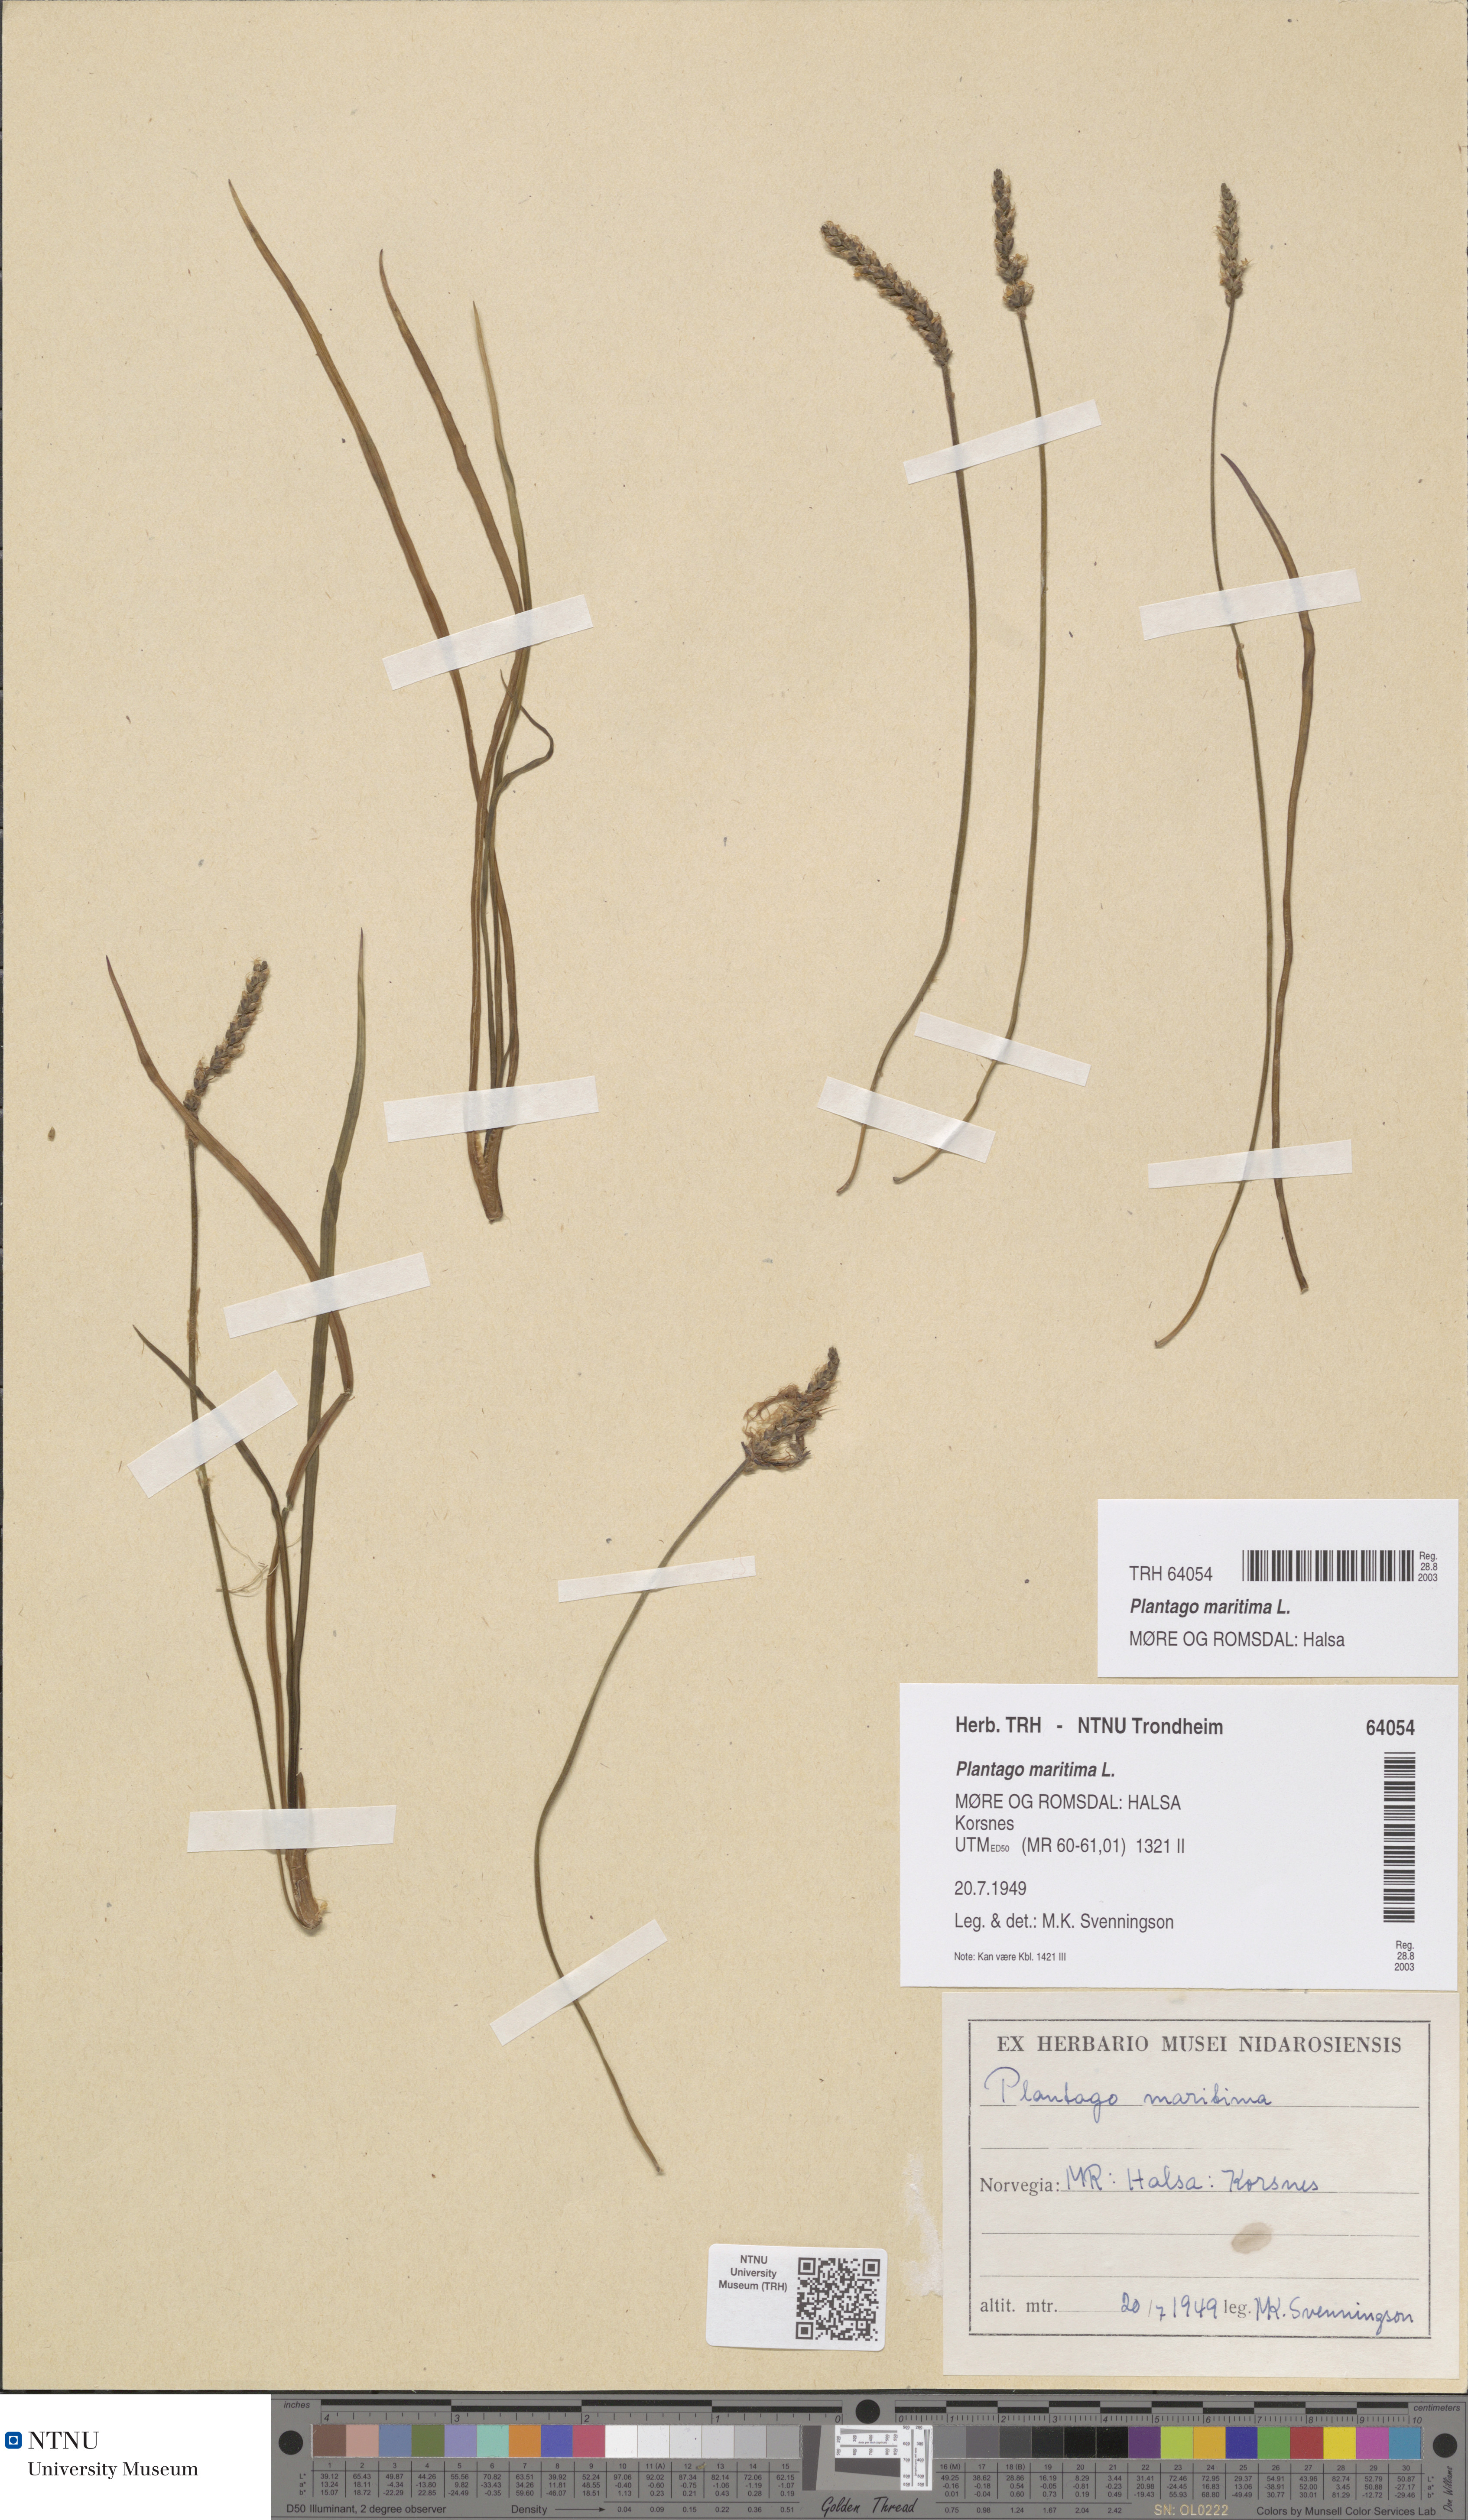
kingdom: Plantae
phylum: Tracheophyta
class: Magnoliopsida
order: Lamiales
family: Plantaginaceae
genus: Plantago
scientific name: Plantago maritima
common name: Sea plantain
